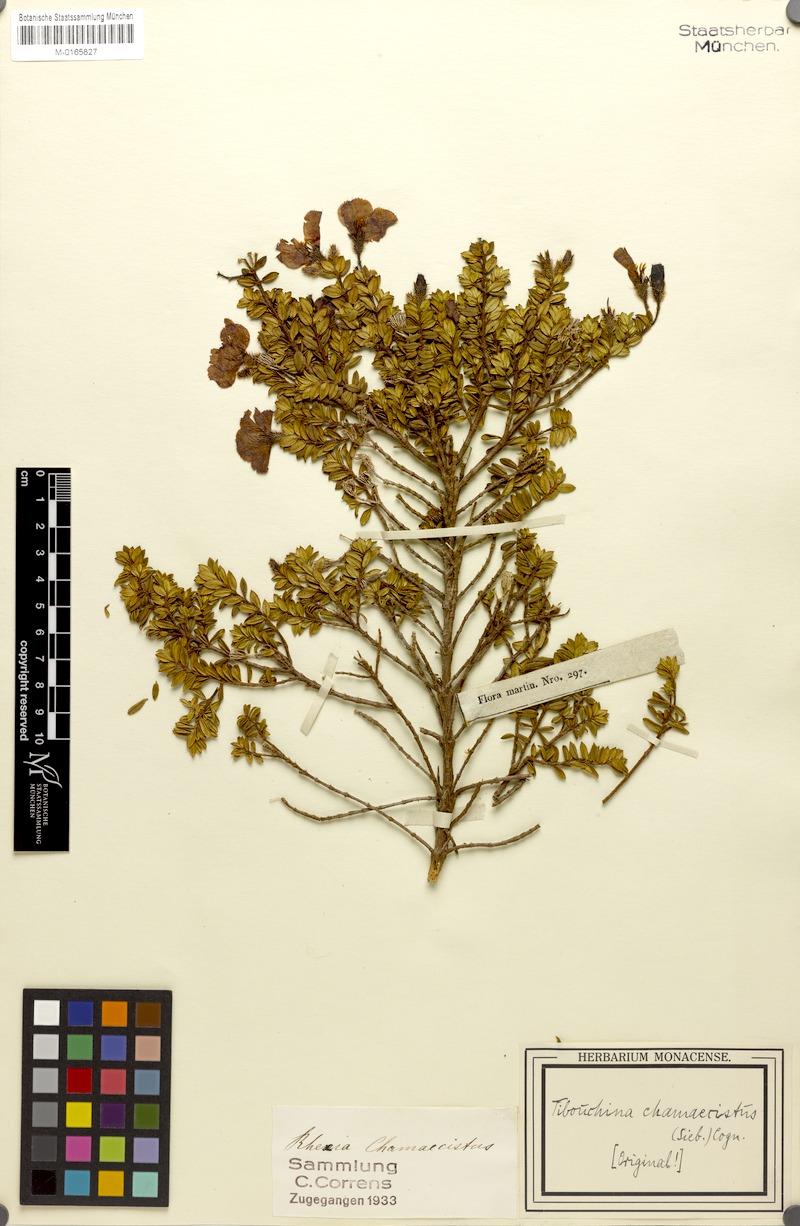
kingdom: Plantae
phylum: Tracheophyta
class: Magnoliopsida
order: Myrtales
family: Melastomataceae
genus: Chaetogastra
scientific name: Chaetogastra chamaecistus
